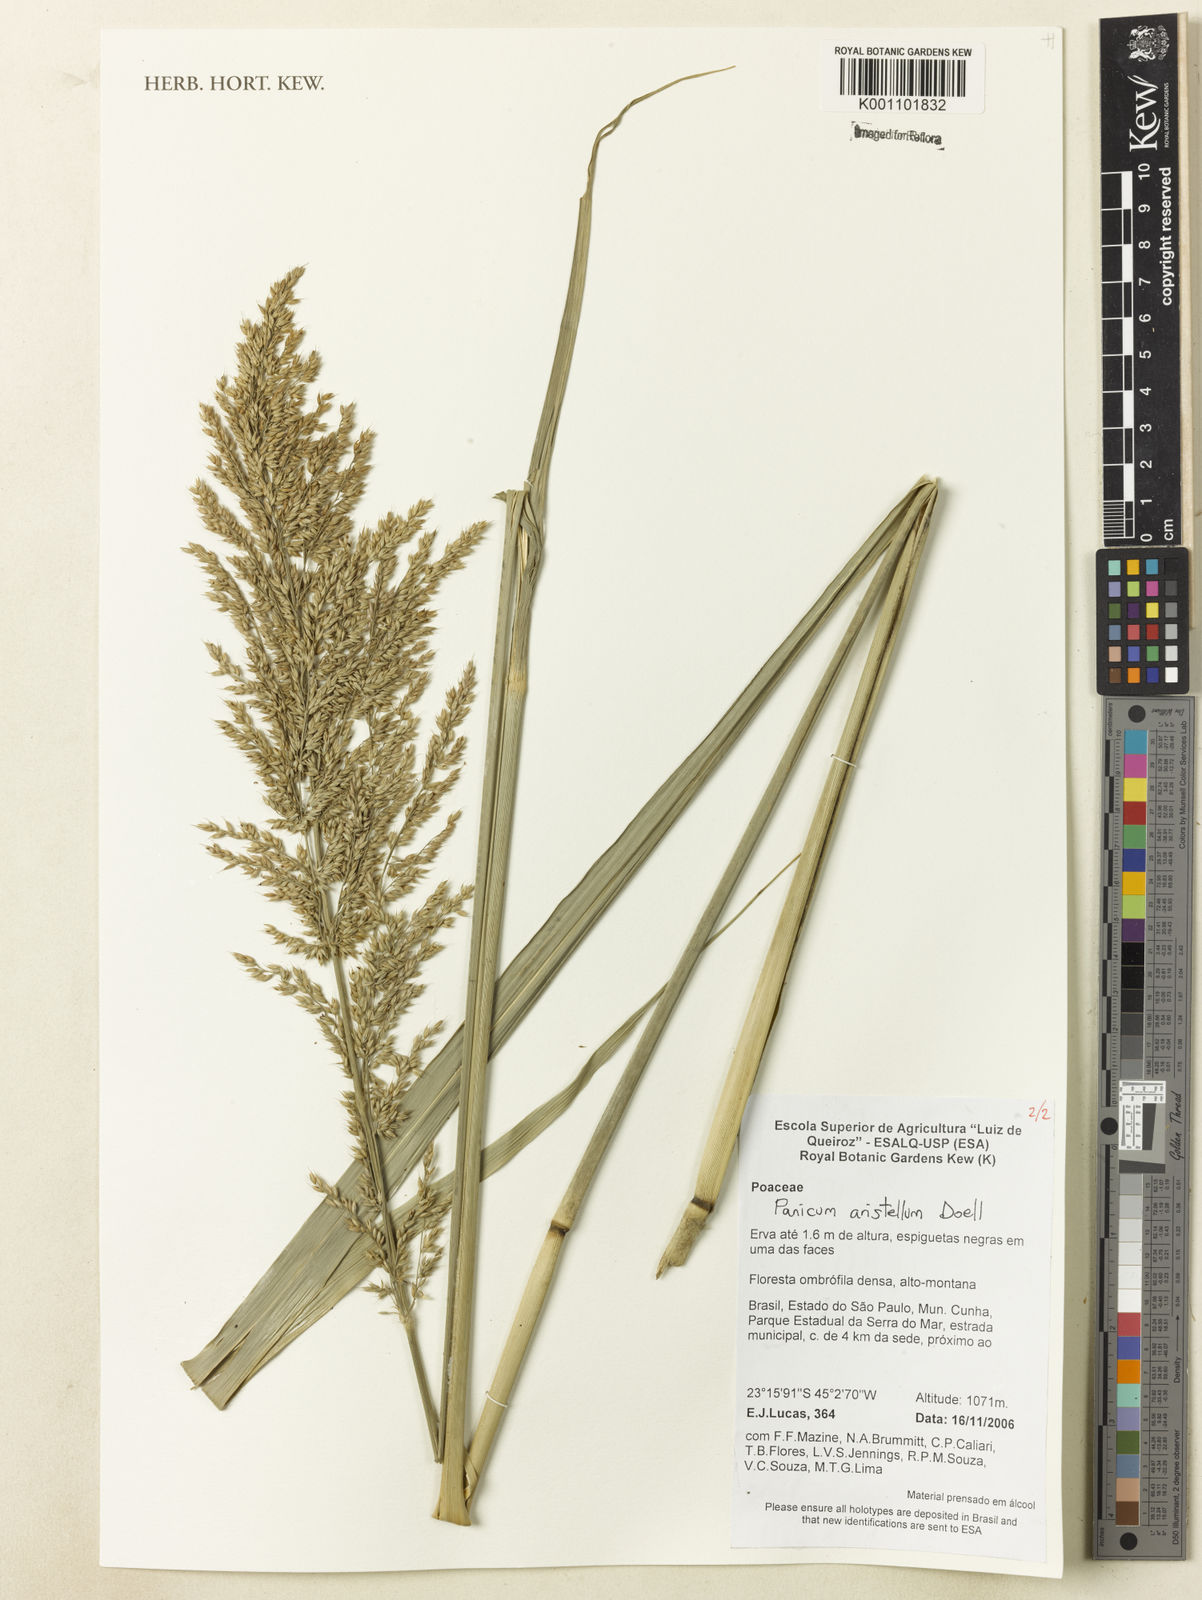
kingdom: Plantae
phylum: Tracheophyta
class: Liliopsida
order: Poales
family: Poaceae
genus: Panicum
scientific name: Panicum
